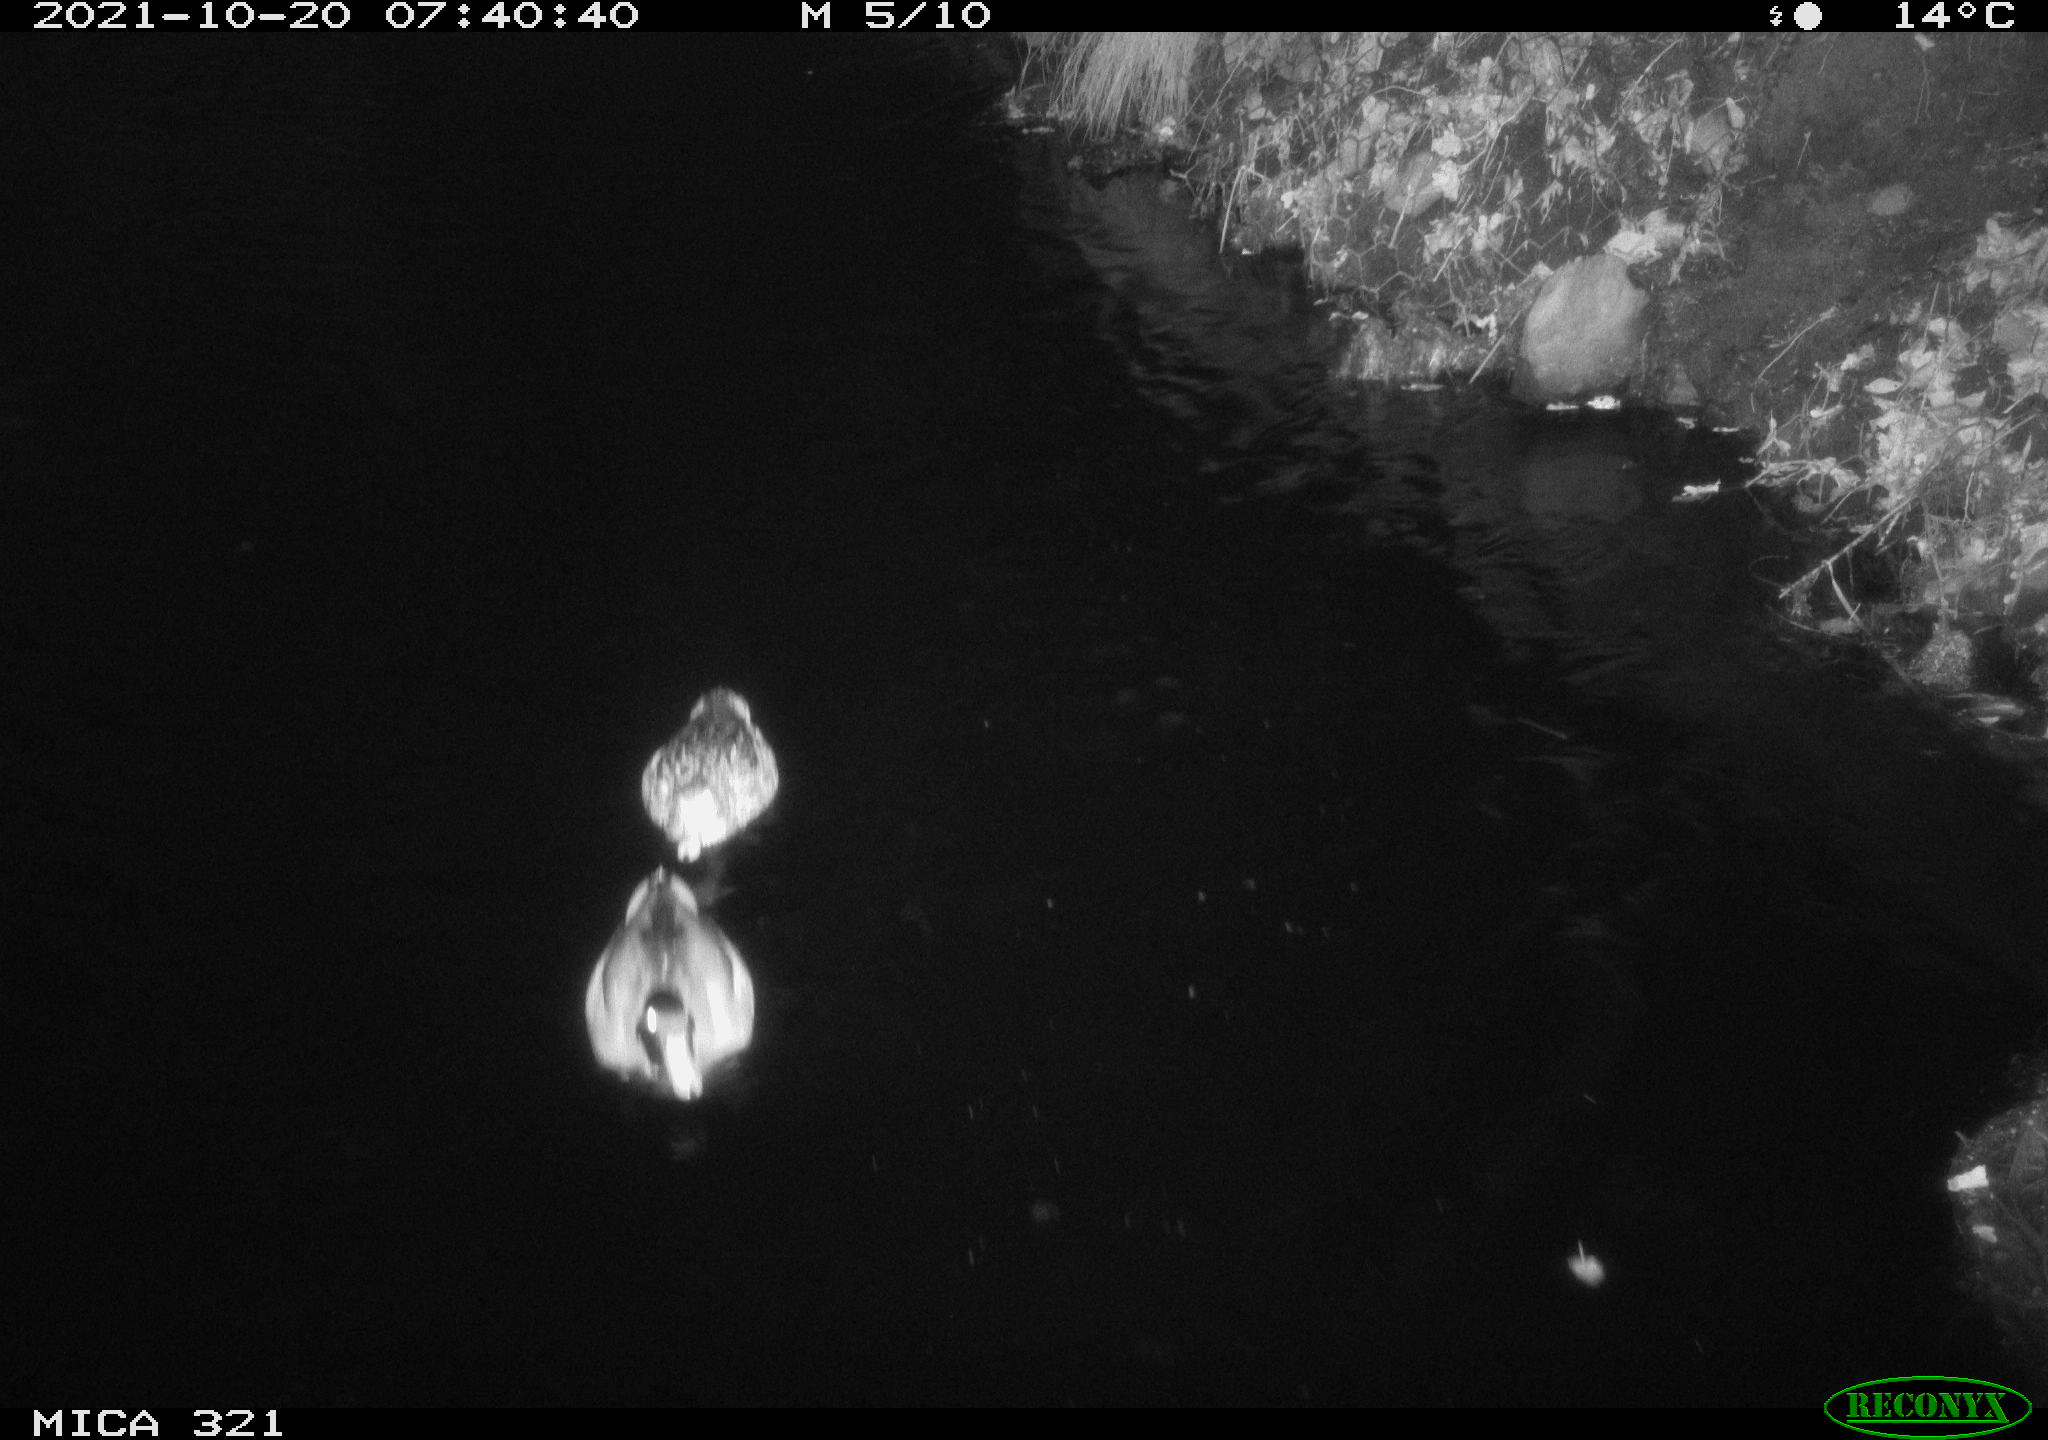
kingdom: Animalia
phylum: Chordata
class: Aves
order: Anseriformes
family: Anatidae
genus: Anas
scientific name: Anas platyrhynchos
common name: Mallard
